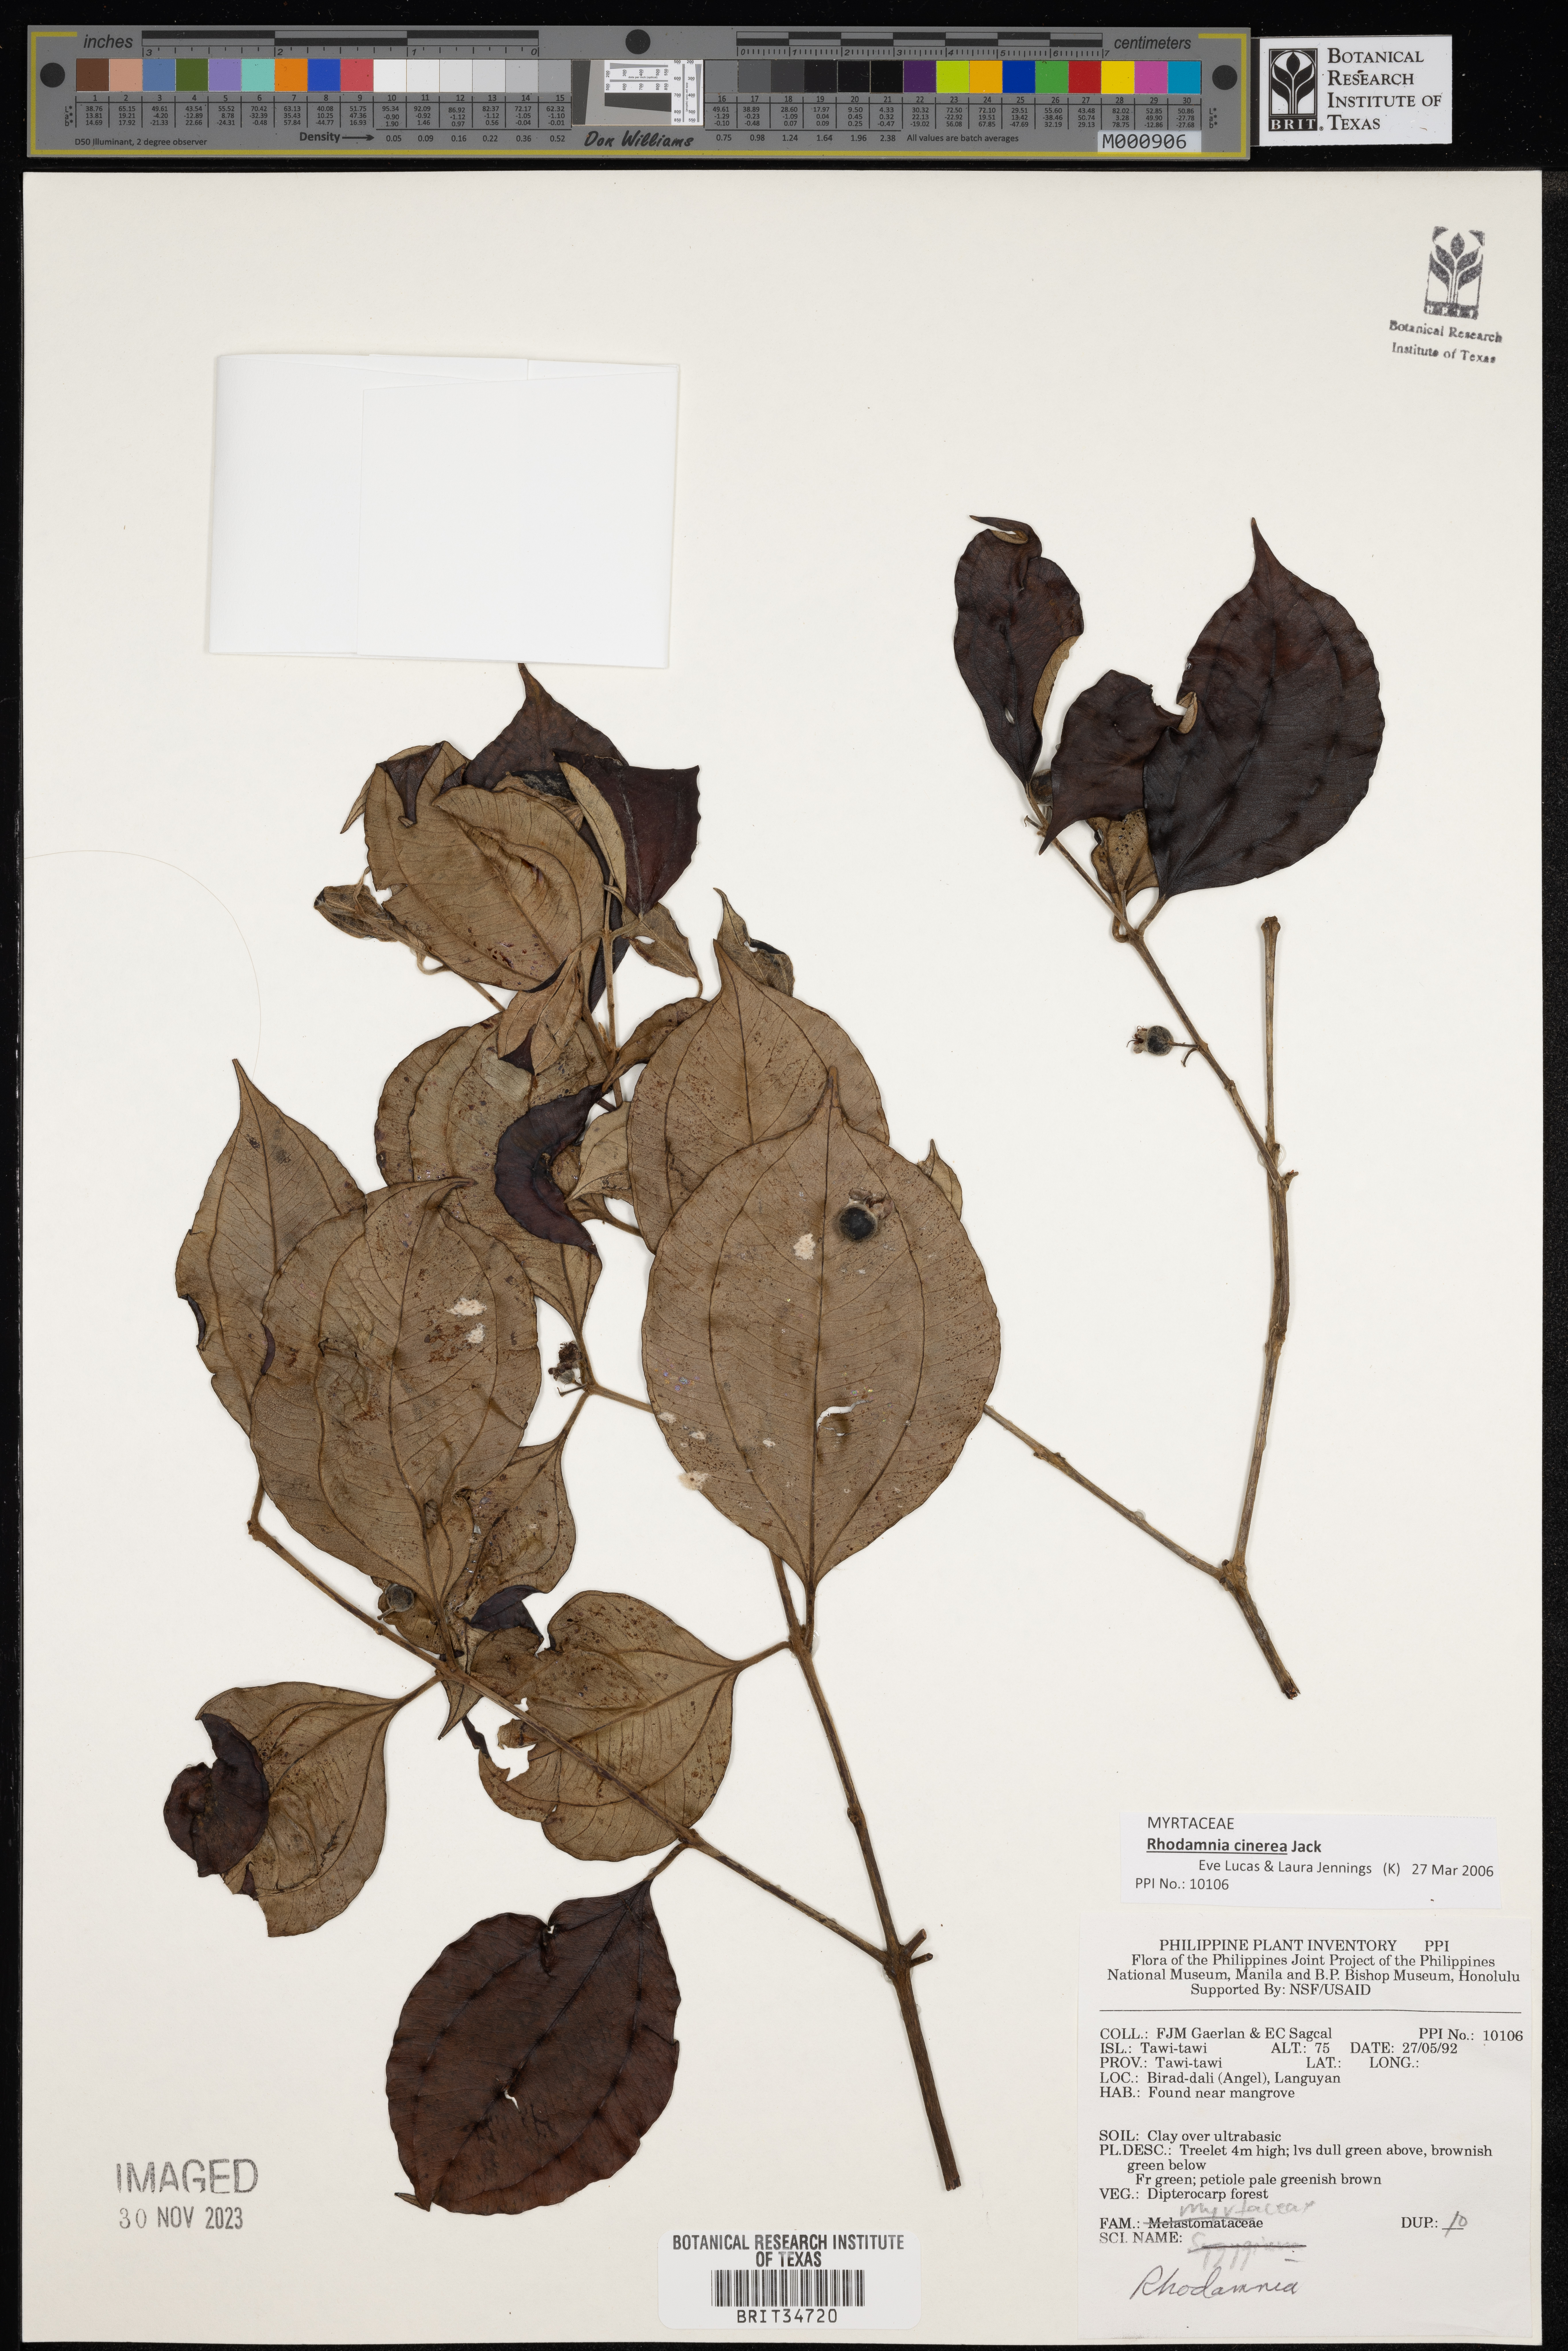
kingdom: Plantae
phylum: Tracheophyta
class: Magnoliopsida
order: Myrtales
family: Myrtaceae
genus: Rhodamnia
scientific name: Rhodamnia
